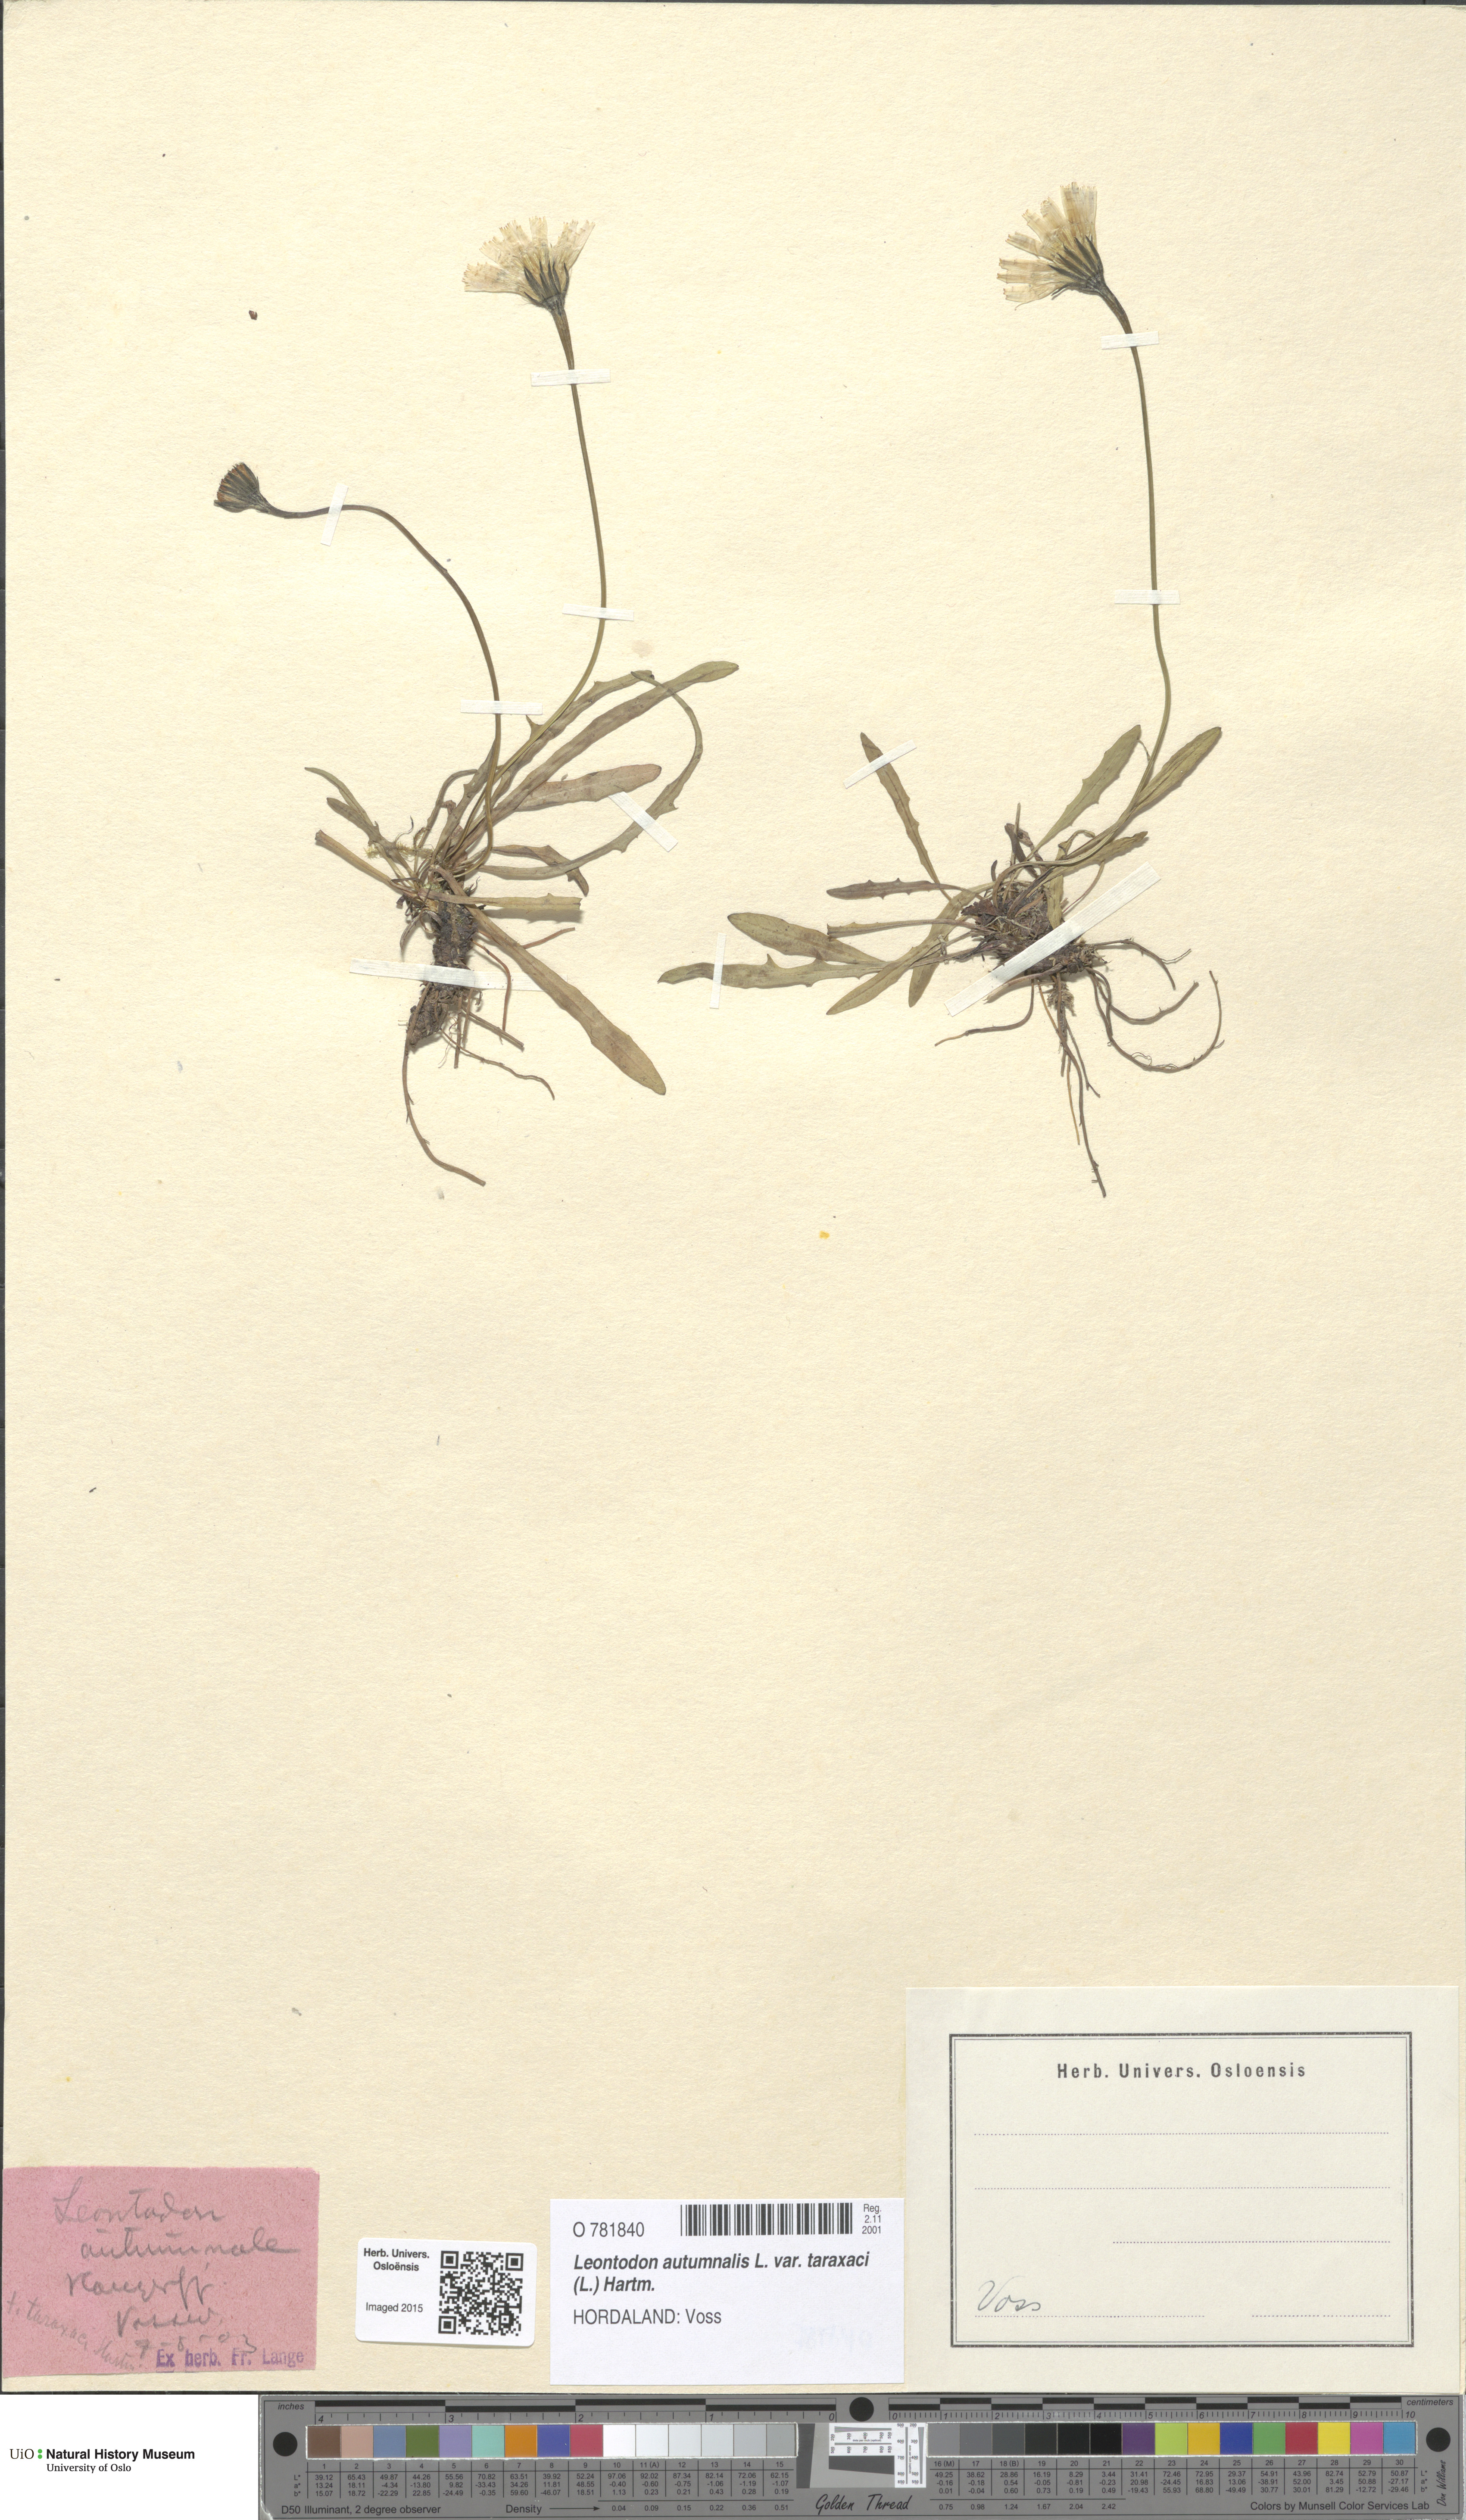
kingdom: Plantae
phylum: Tracheophyta
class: Magnoliopsida
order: Asterales
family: Asteraceae
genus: Scorzoneroides
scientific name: Scorzoneroides autumnalis
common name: Autumn hawkbit
